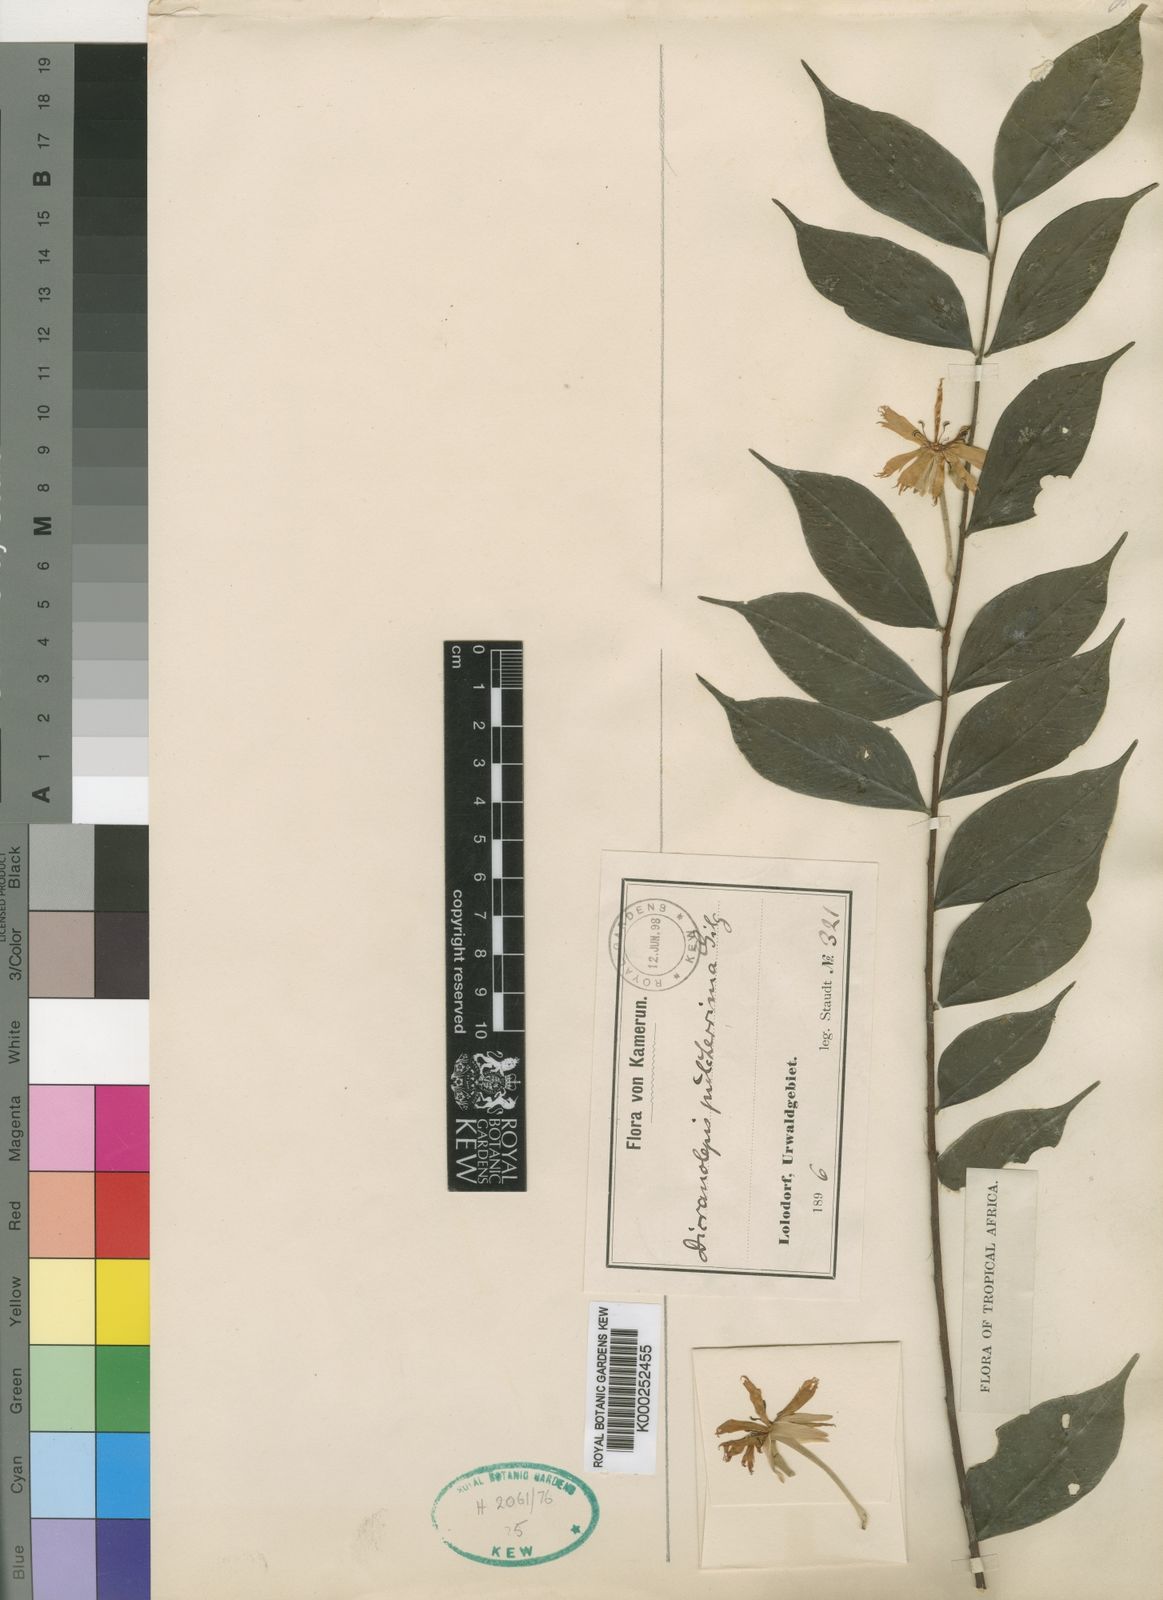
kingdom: Plantae
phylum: Tracheophyta
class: Magnoliopsida
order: Malvales
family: Thymelaeaceae
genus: Dicranolepis
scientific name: Dicranolepis pulcherrima
